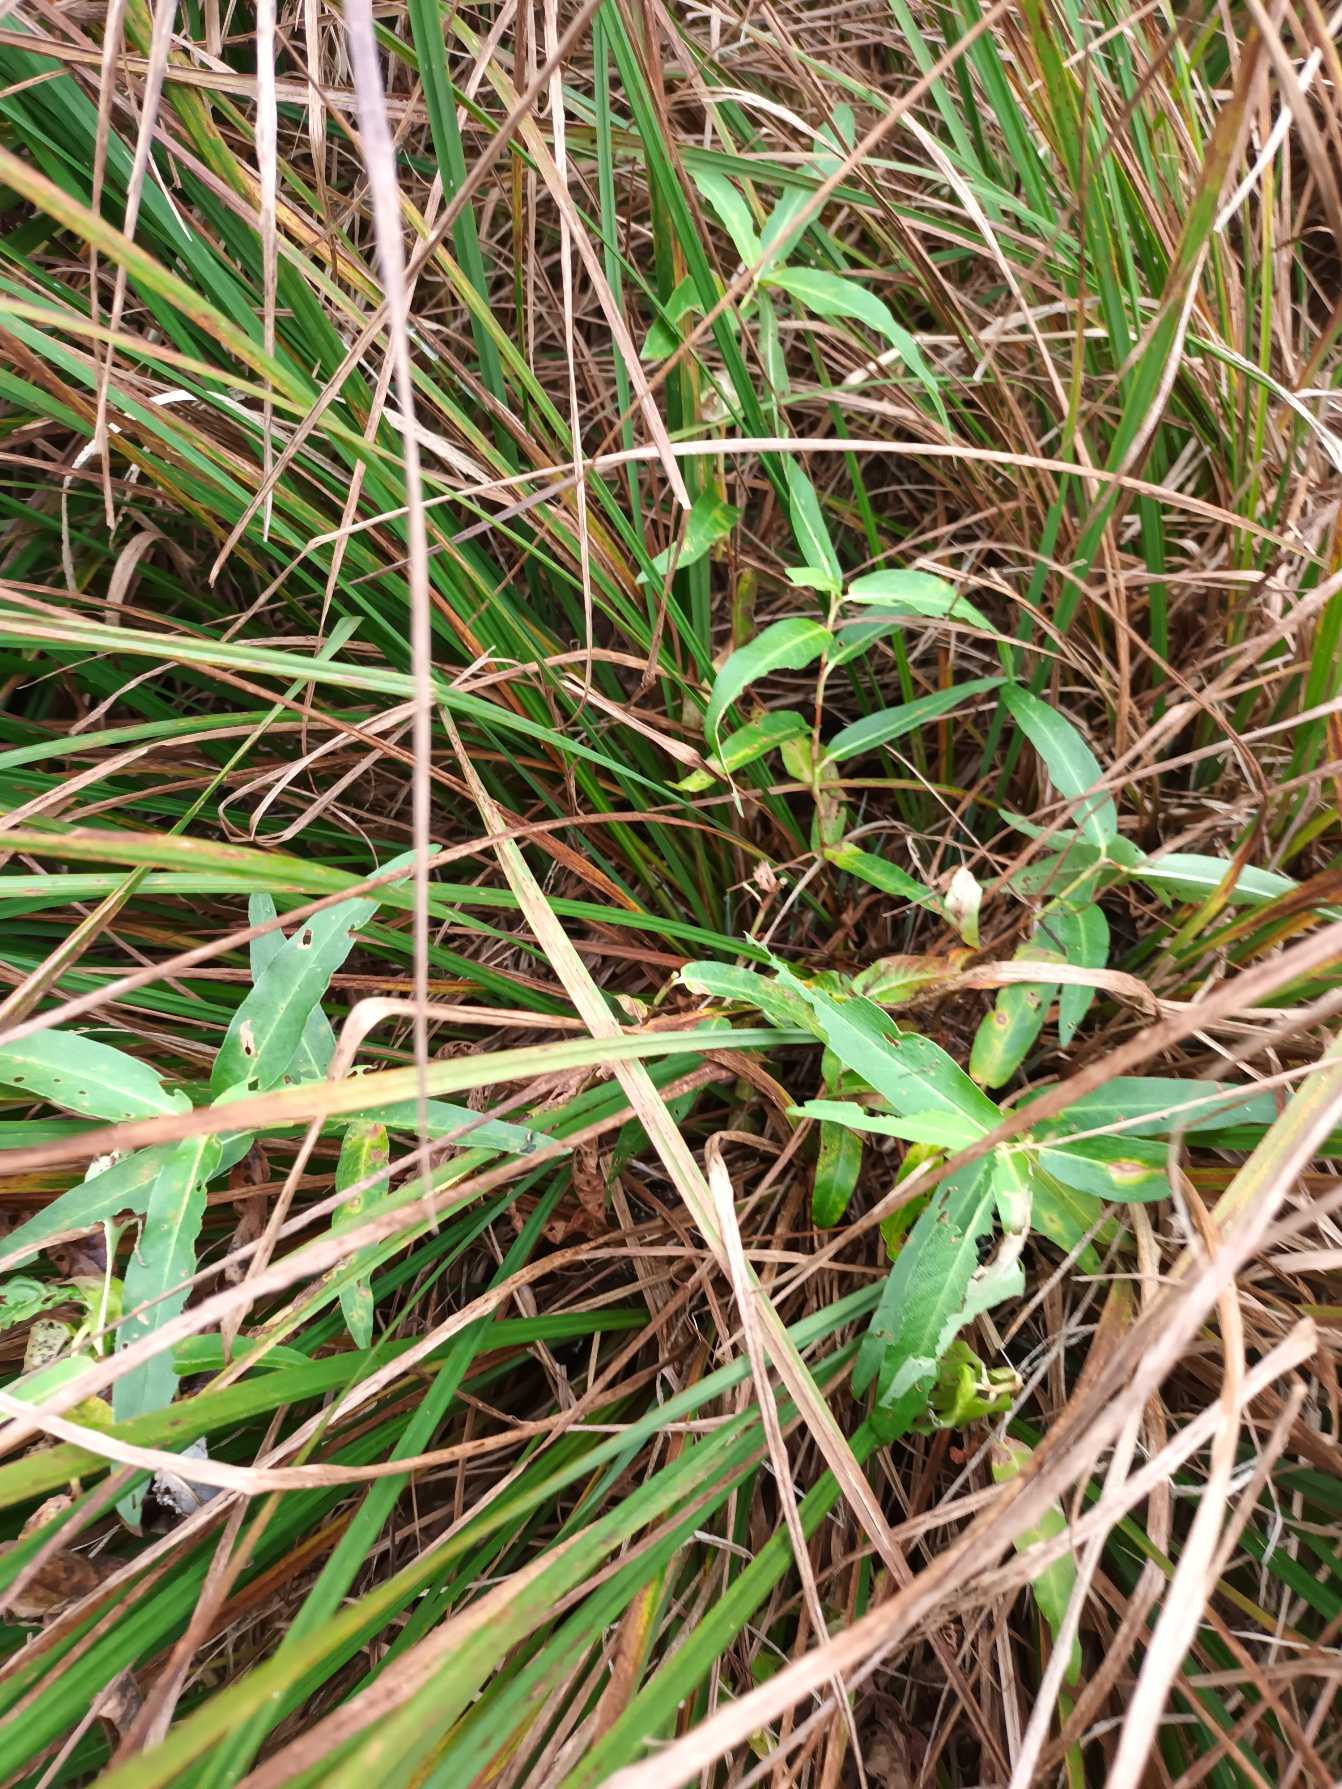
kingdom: Plantae
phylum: Tracheophyta
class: Magnoliopsida
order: Caryophyllales
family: Polygonaceae
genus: Persicaria
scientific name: Persicaria amphibia
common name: Vand-pileurt
